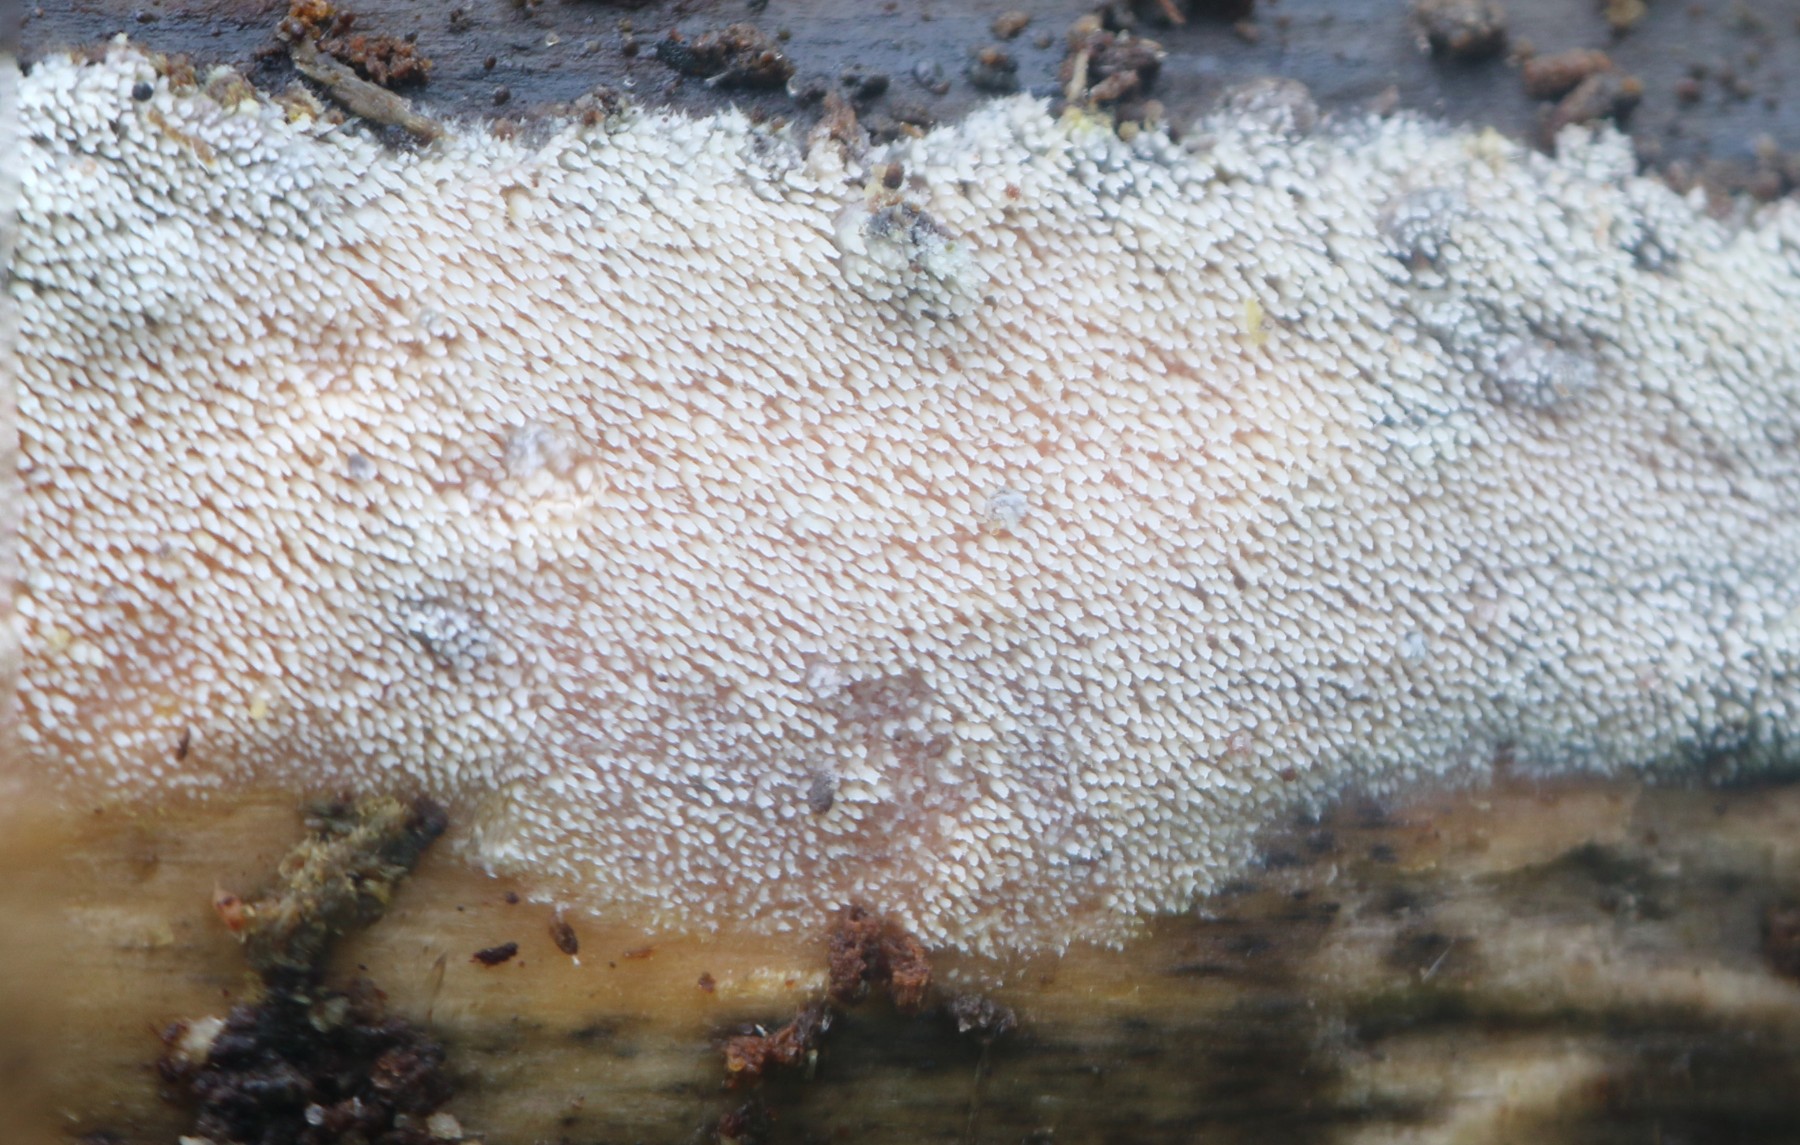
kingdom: Fungi
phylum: Basidiomycota
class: Agaricomycetes
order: Polyporales
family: Meruliaceae
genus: Mycoacia
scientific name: Mycoacia aurea
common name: lang vokspig
